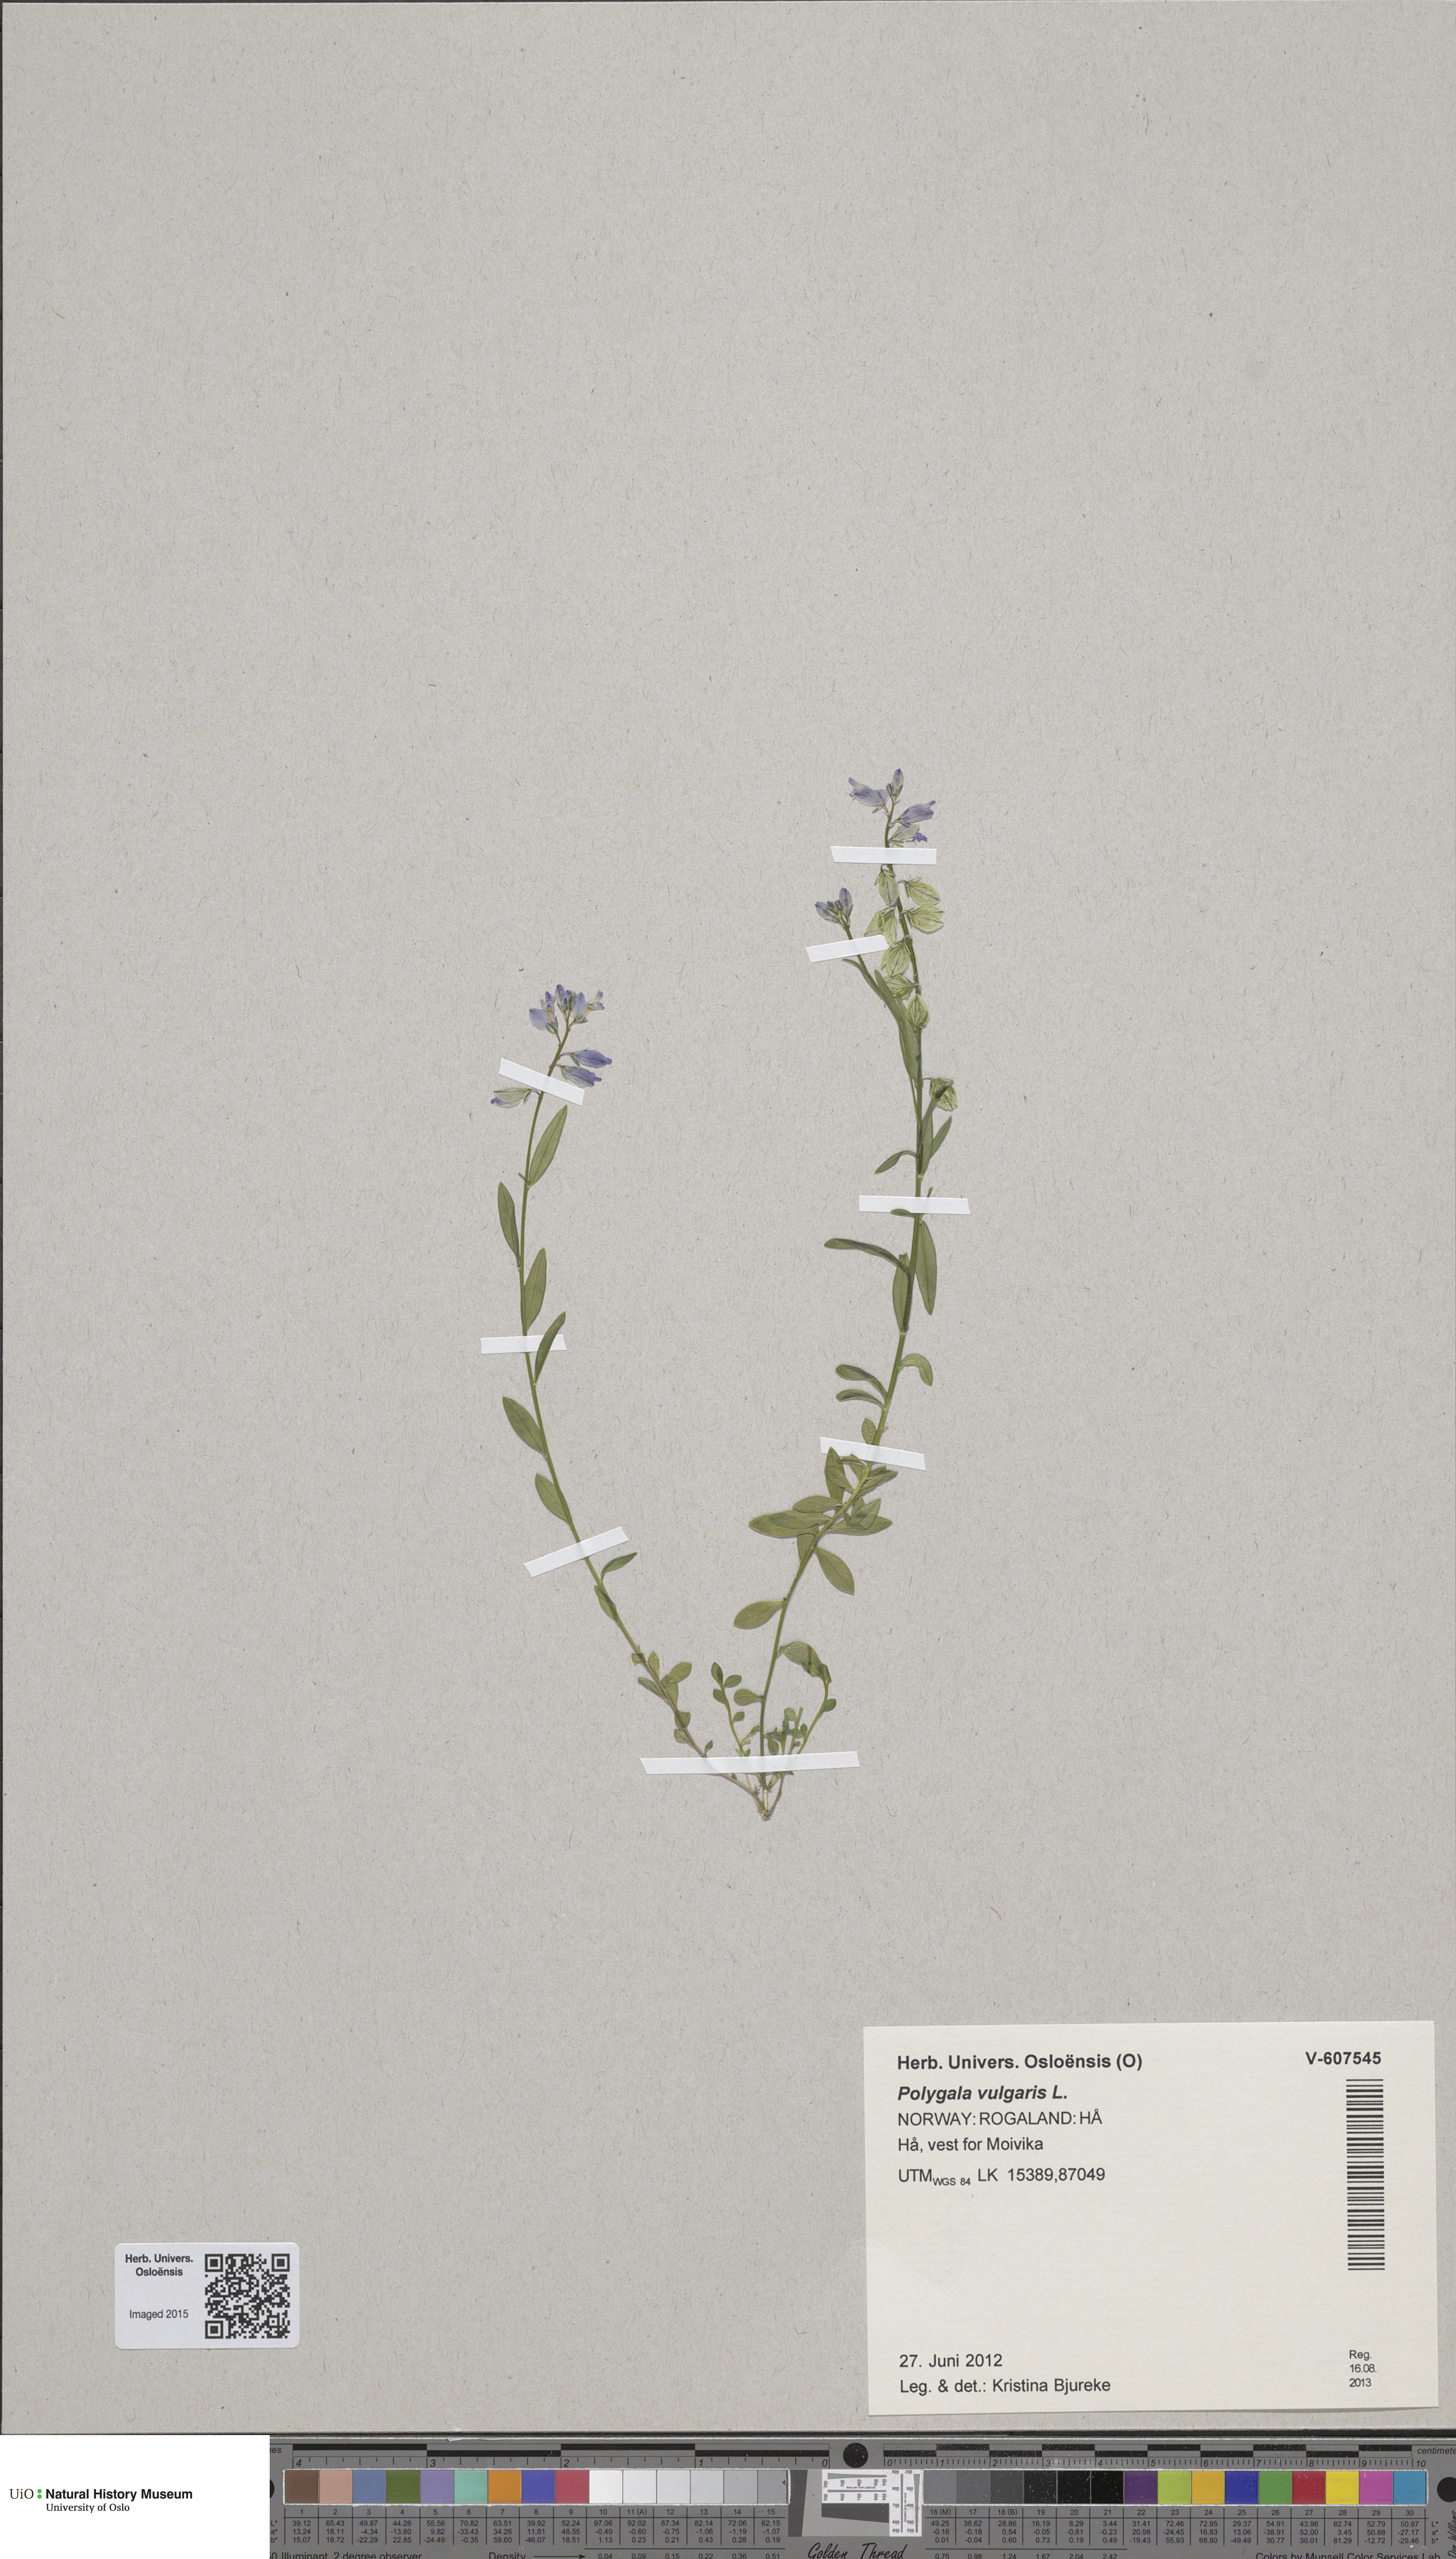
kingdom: Plantae
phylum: Tracheophyta
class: Magnoliopsida
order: Fabales
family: Polygalaceae
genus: Polygala
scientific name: Polygala vulgaris
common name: Common milkwort
